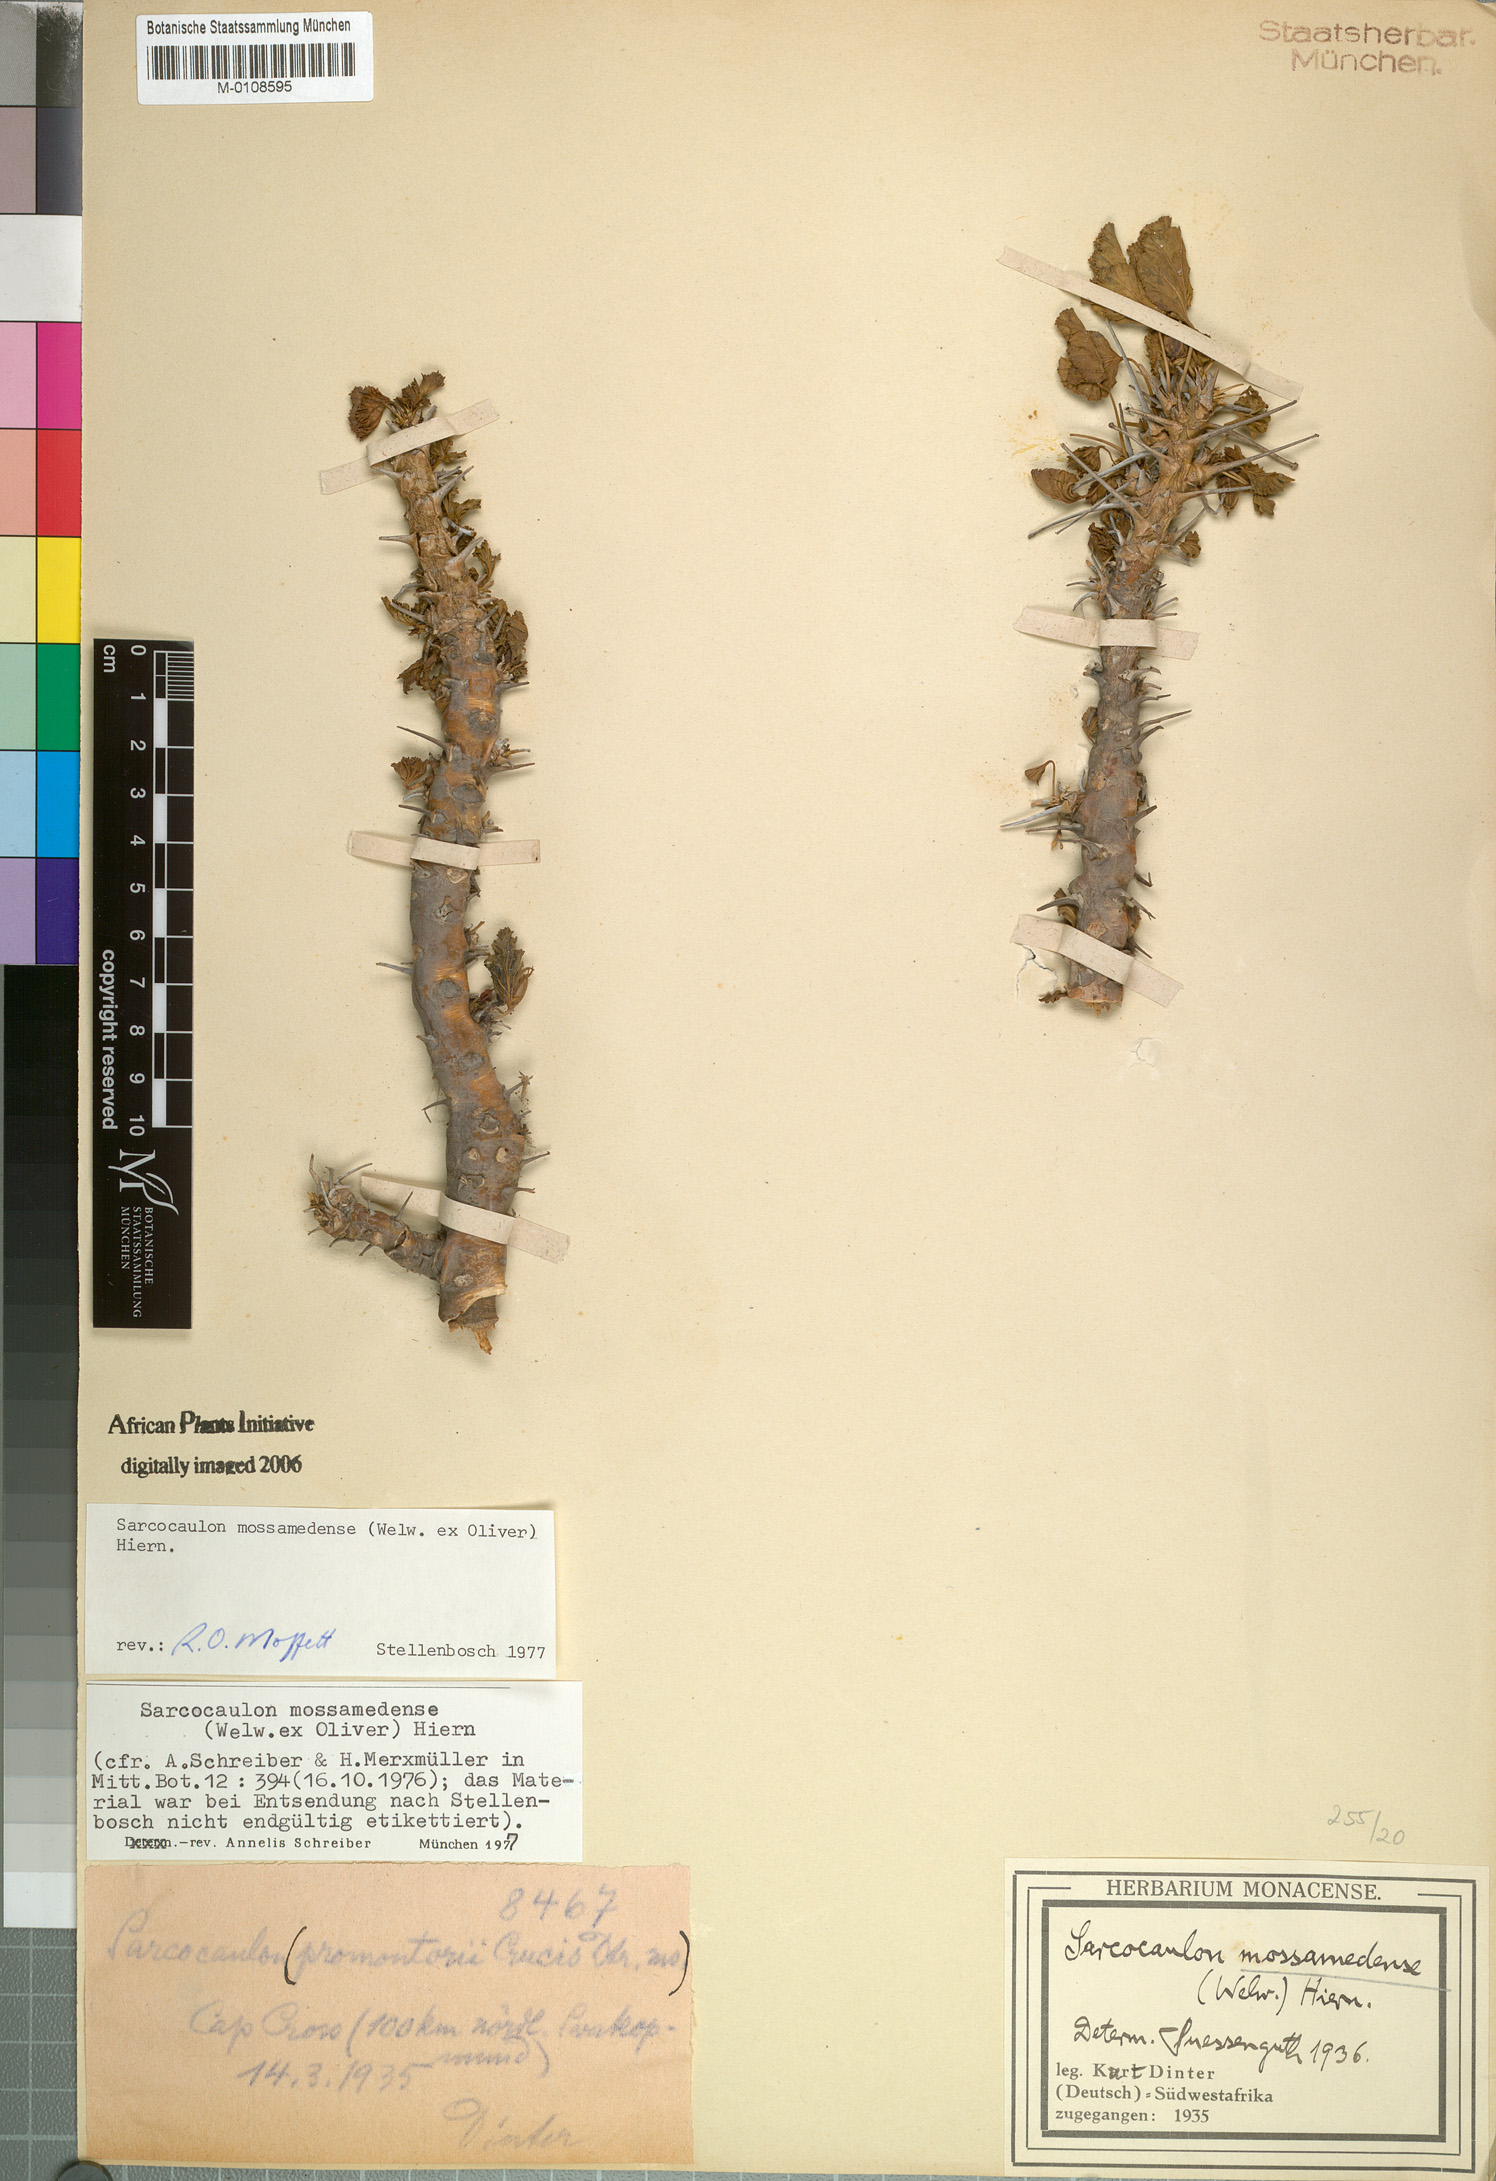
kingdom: Plantae
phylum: Tracheophyta
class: Magnoliopsida
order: Geraniales
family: Geraniaceae
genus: Monsonia
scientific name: Monsonia mossamedensis
